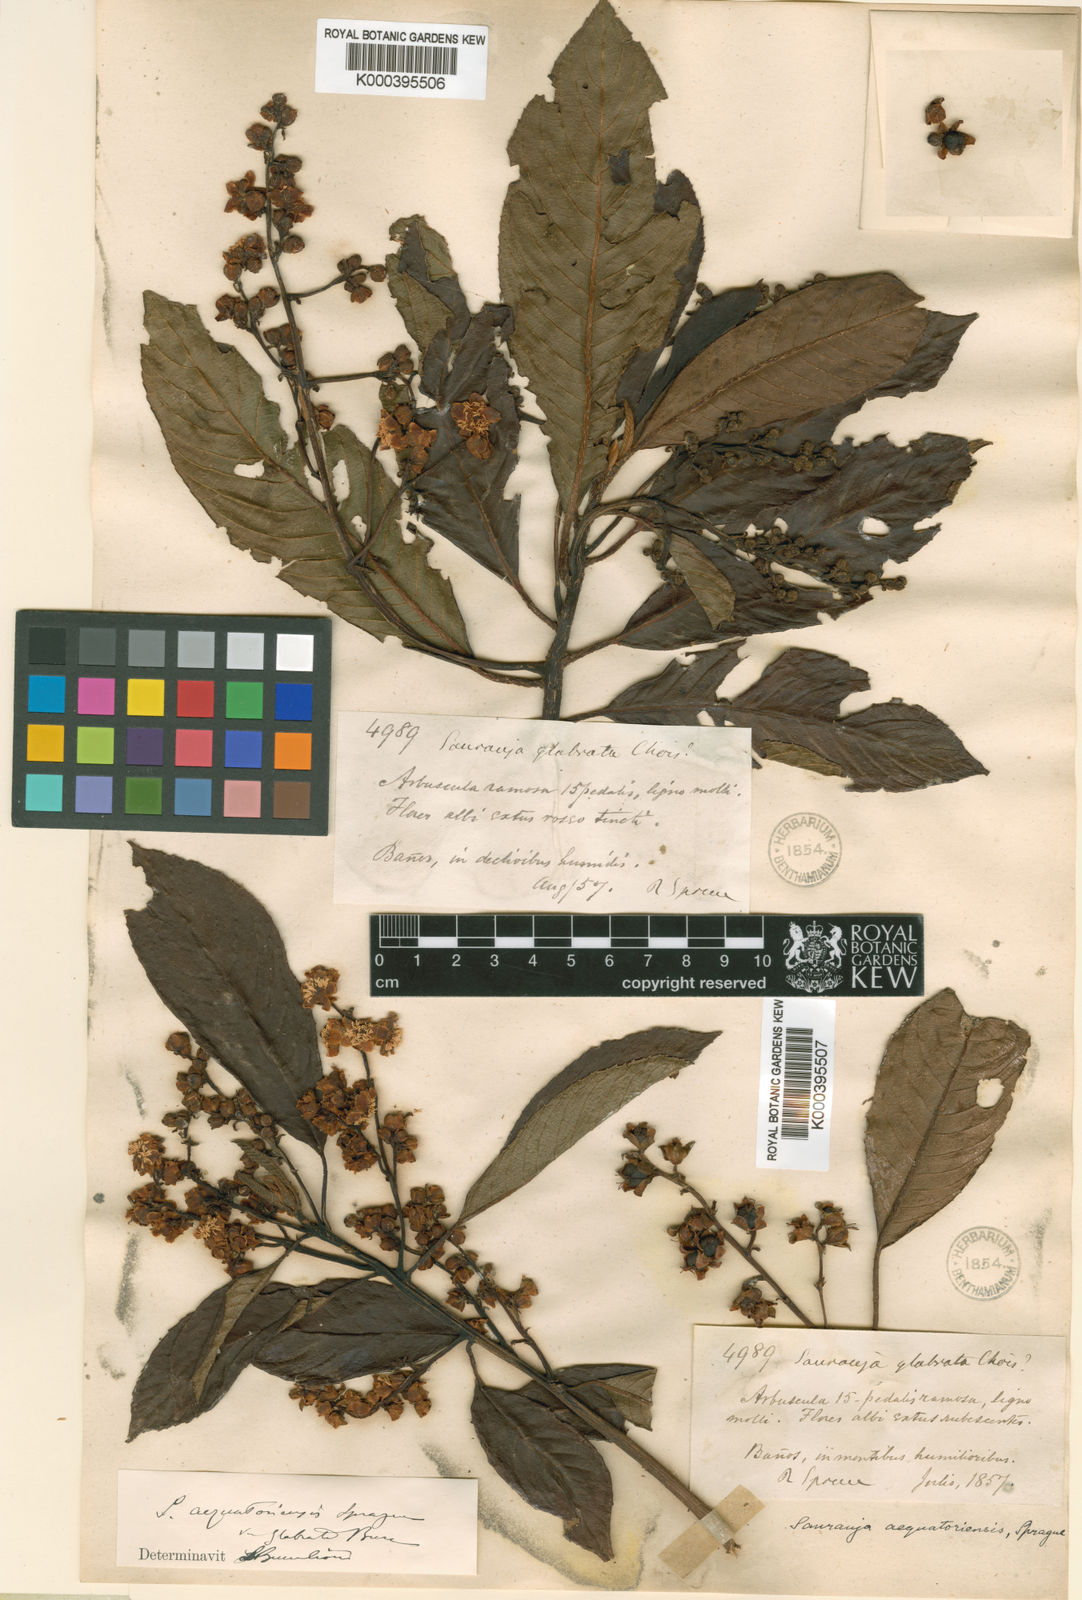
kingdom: Plantae
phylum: Tracheophyta
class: Magnoliopsida
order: Ericales
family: Actinidiaceae
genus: Saurauia
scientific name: Saurauia
